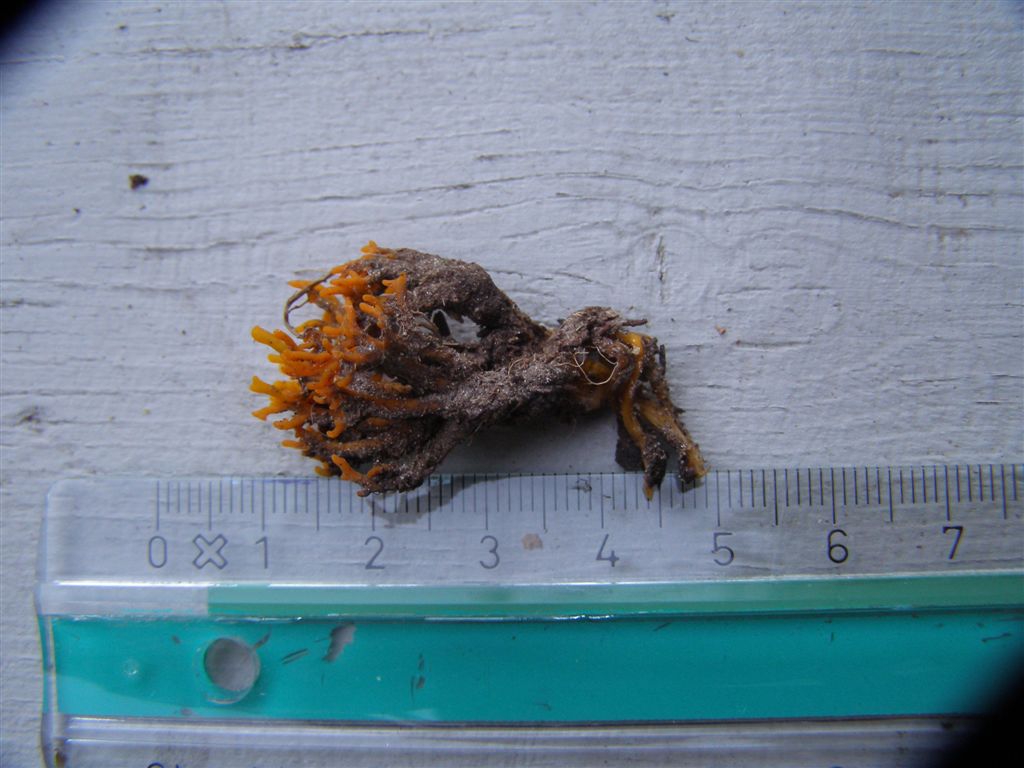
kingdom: Fungi
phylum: Basidiomycota
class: Dacrymycetes
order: Dacrymycetales
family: Dacrymycetaceae
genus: Calocera
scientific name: Calocera viscosa
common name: almindelig guldgaffel
